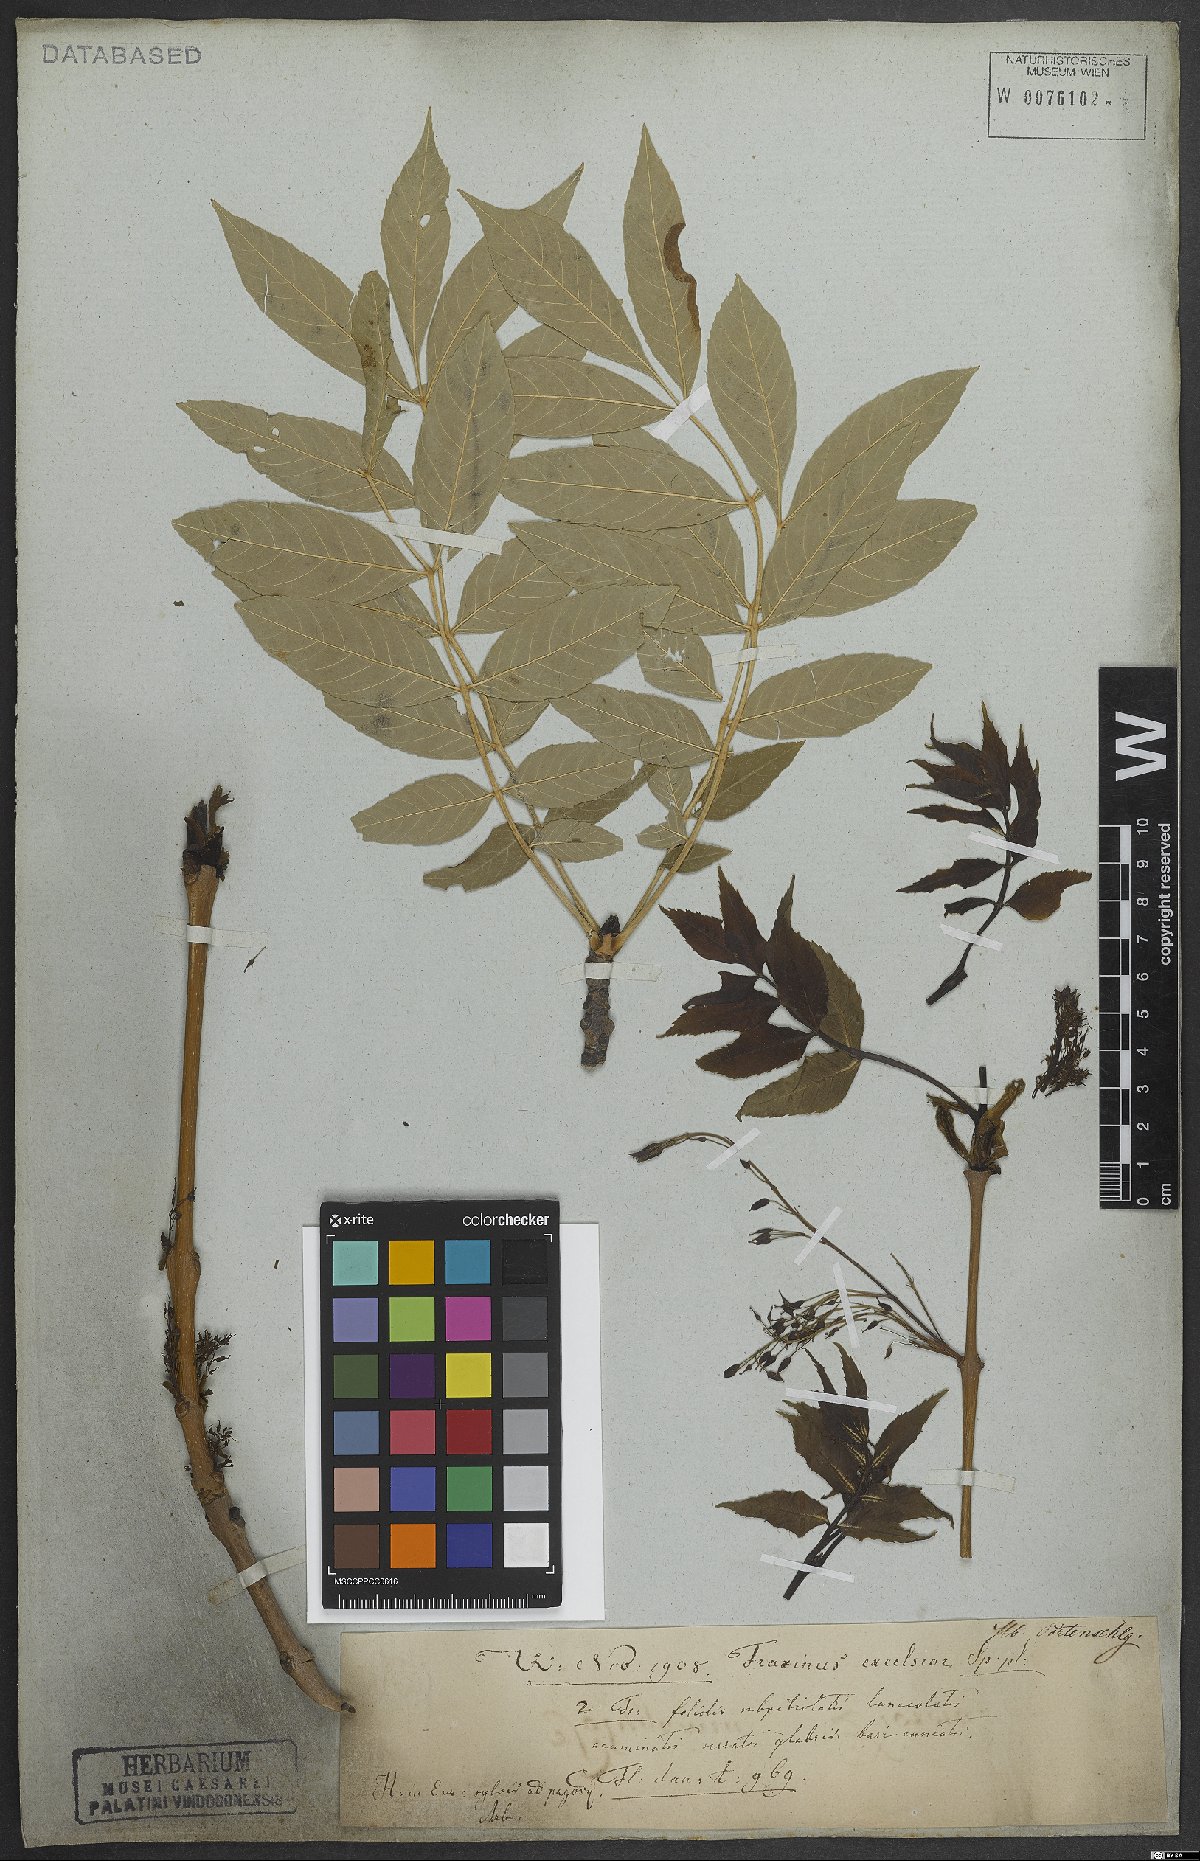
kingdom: Plantae
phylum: Tracheophyta
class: Magnoliopsida
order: Lamiales
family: Oleaceae
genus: Fraxinus
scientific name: Fraxinus excelsior
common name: European ash
